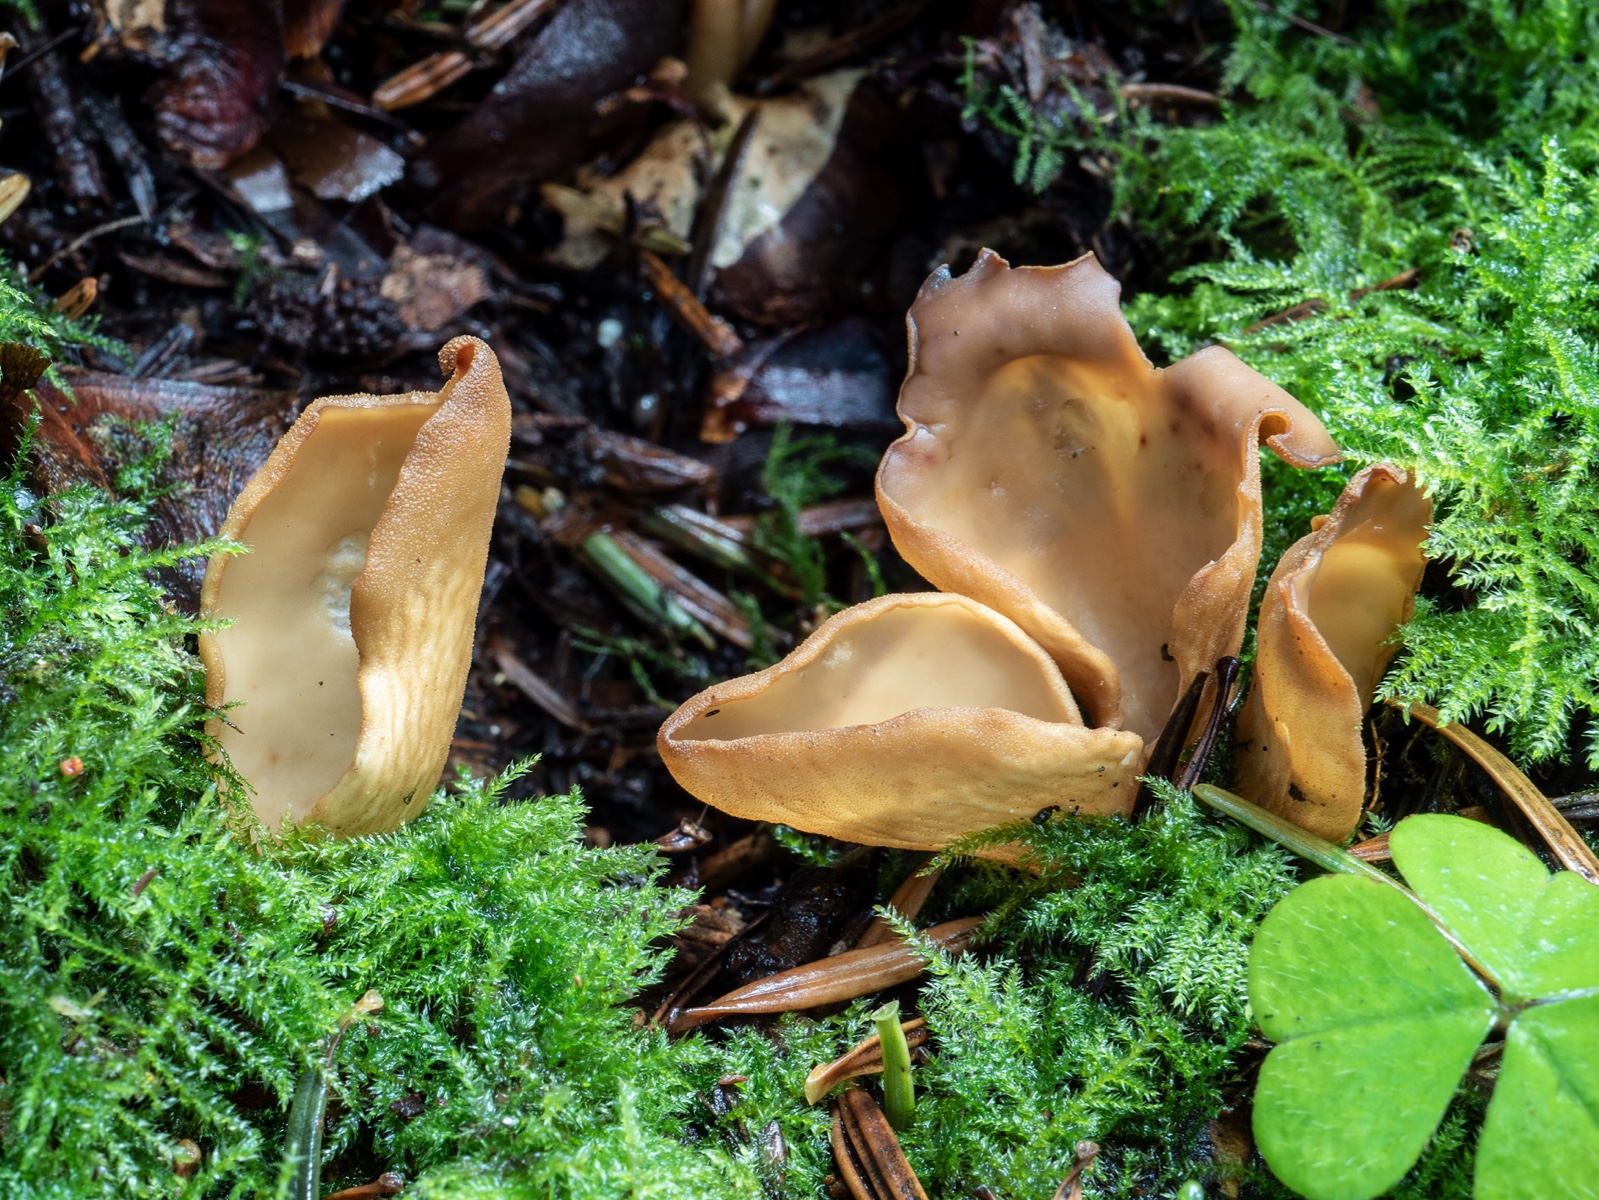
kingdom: Fungi
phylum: Ascomycota
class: Pezizomycetes
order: Pezizales
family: Otideaceae
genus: Otidea
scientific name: Otidea nannfeldtii
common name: jolle-ørebæger
